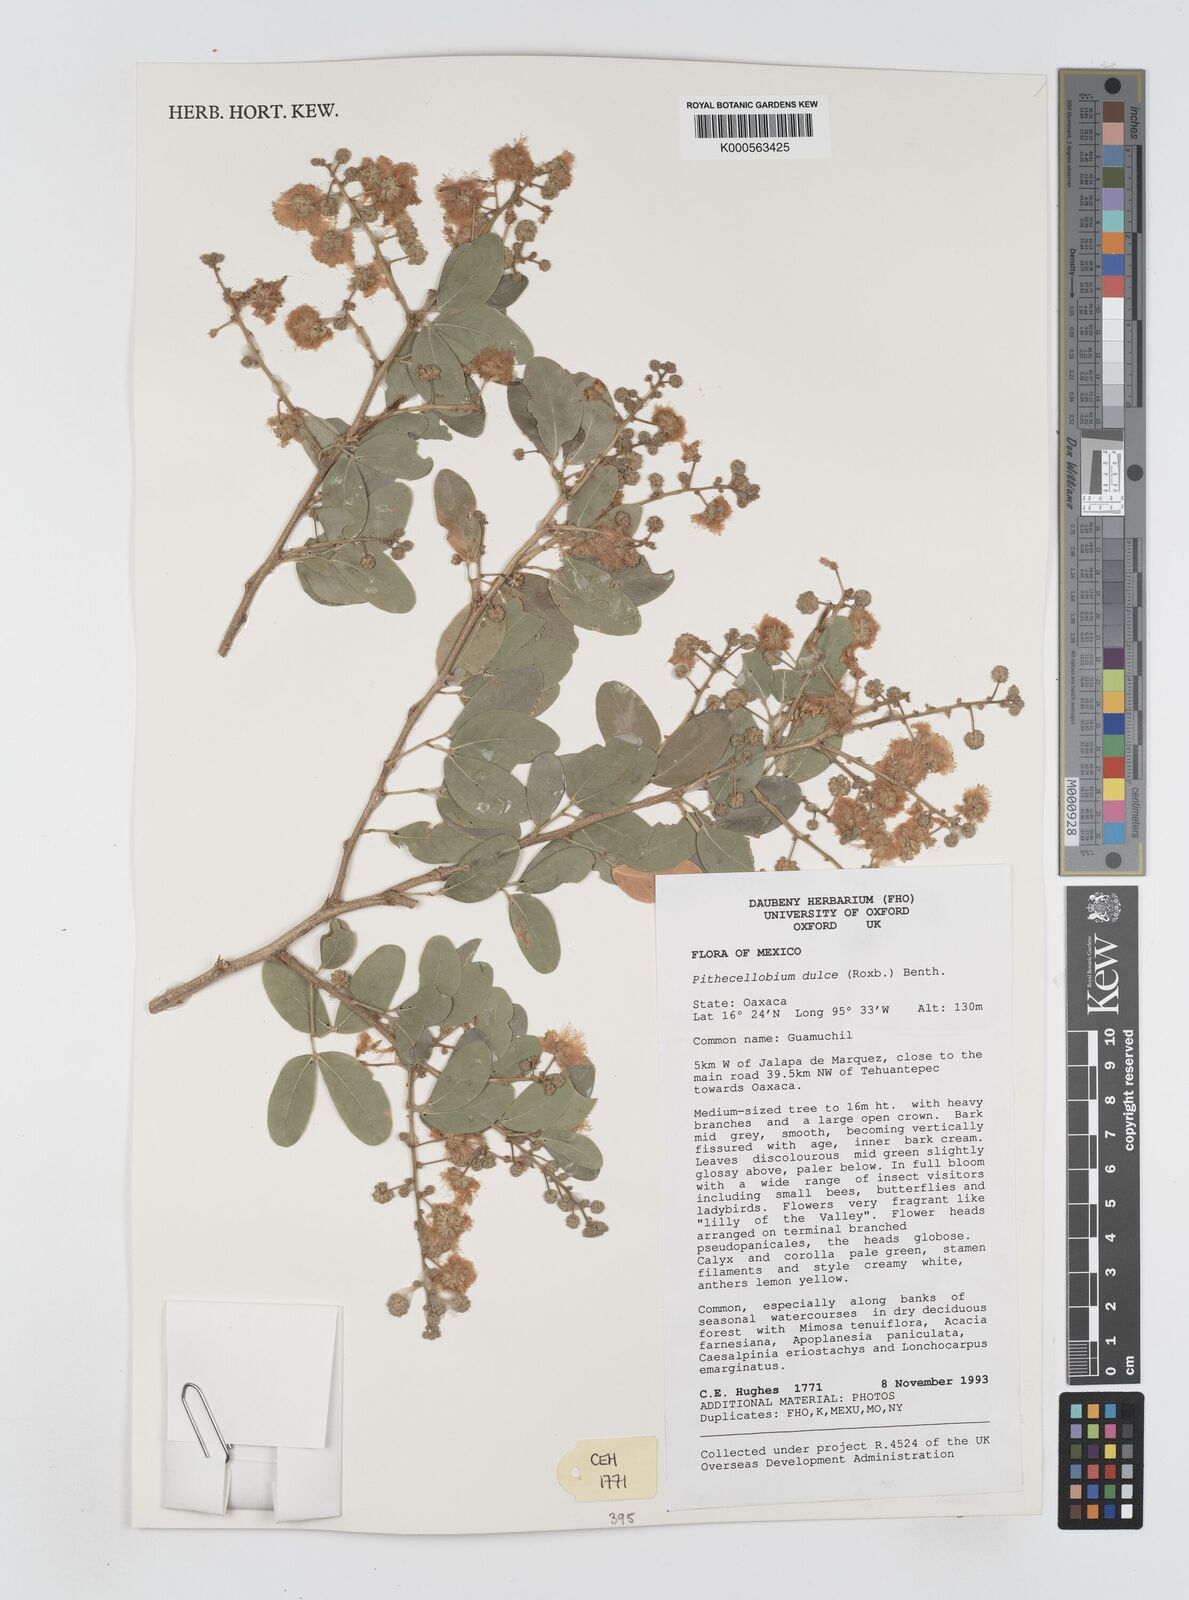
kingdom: Plantae
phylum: Tracheophyta
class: Magnoliopsida
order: Fabales
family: Fabaceae
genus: Pithecellobium
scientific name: Pithecellobium dulce
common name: Monkeypod
